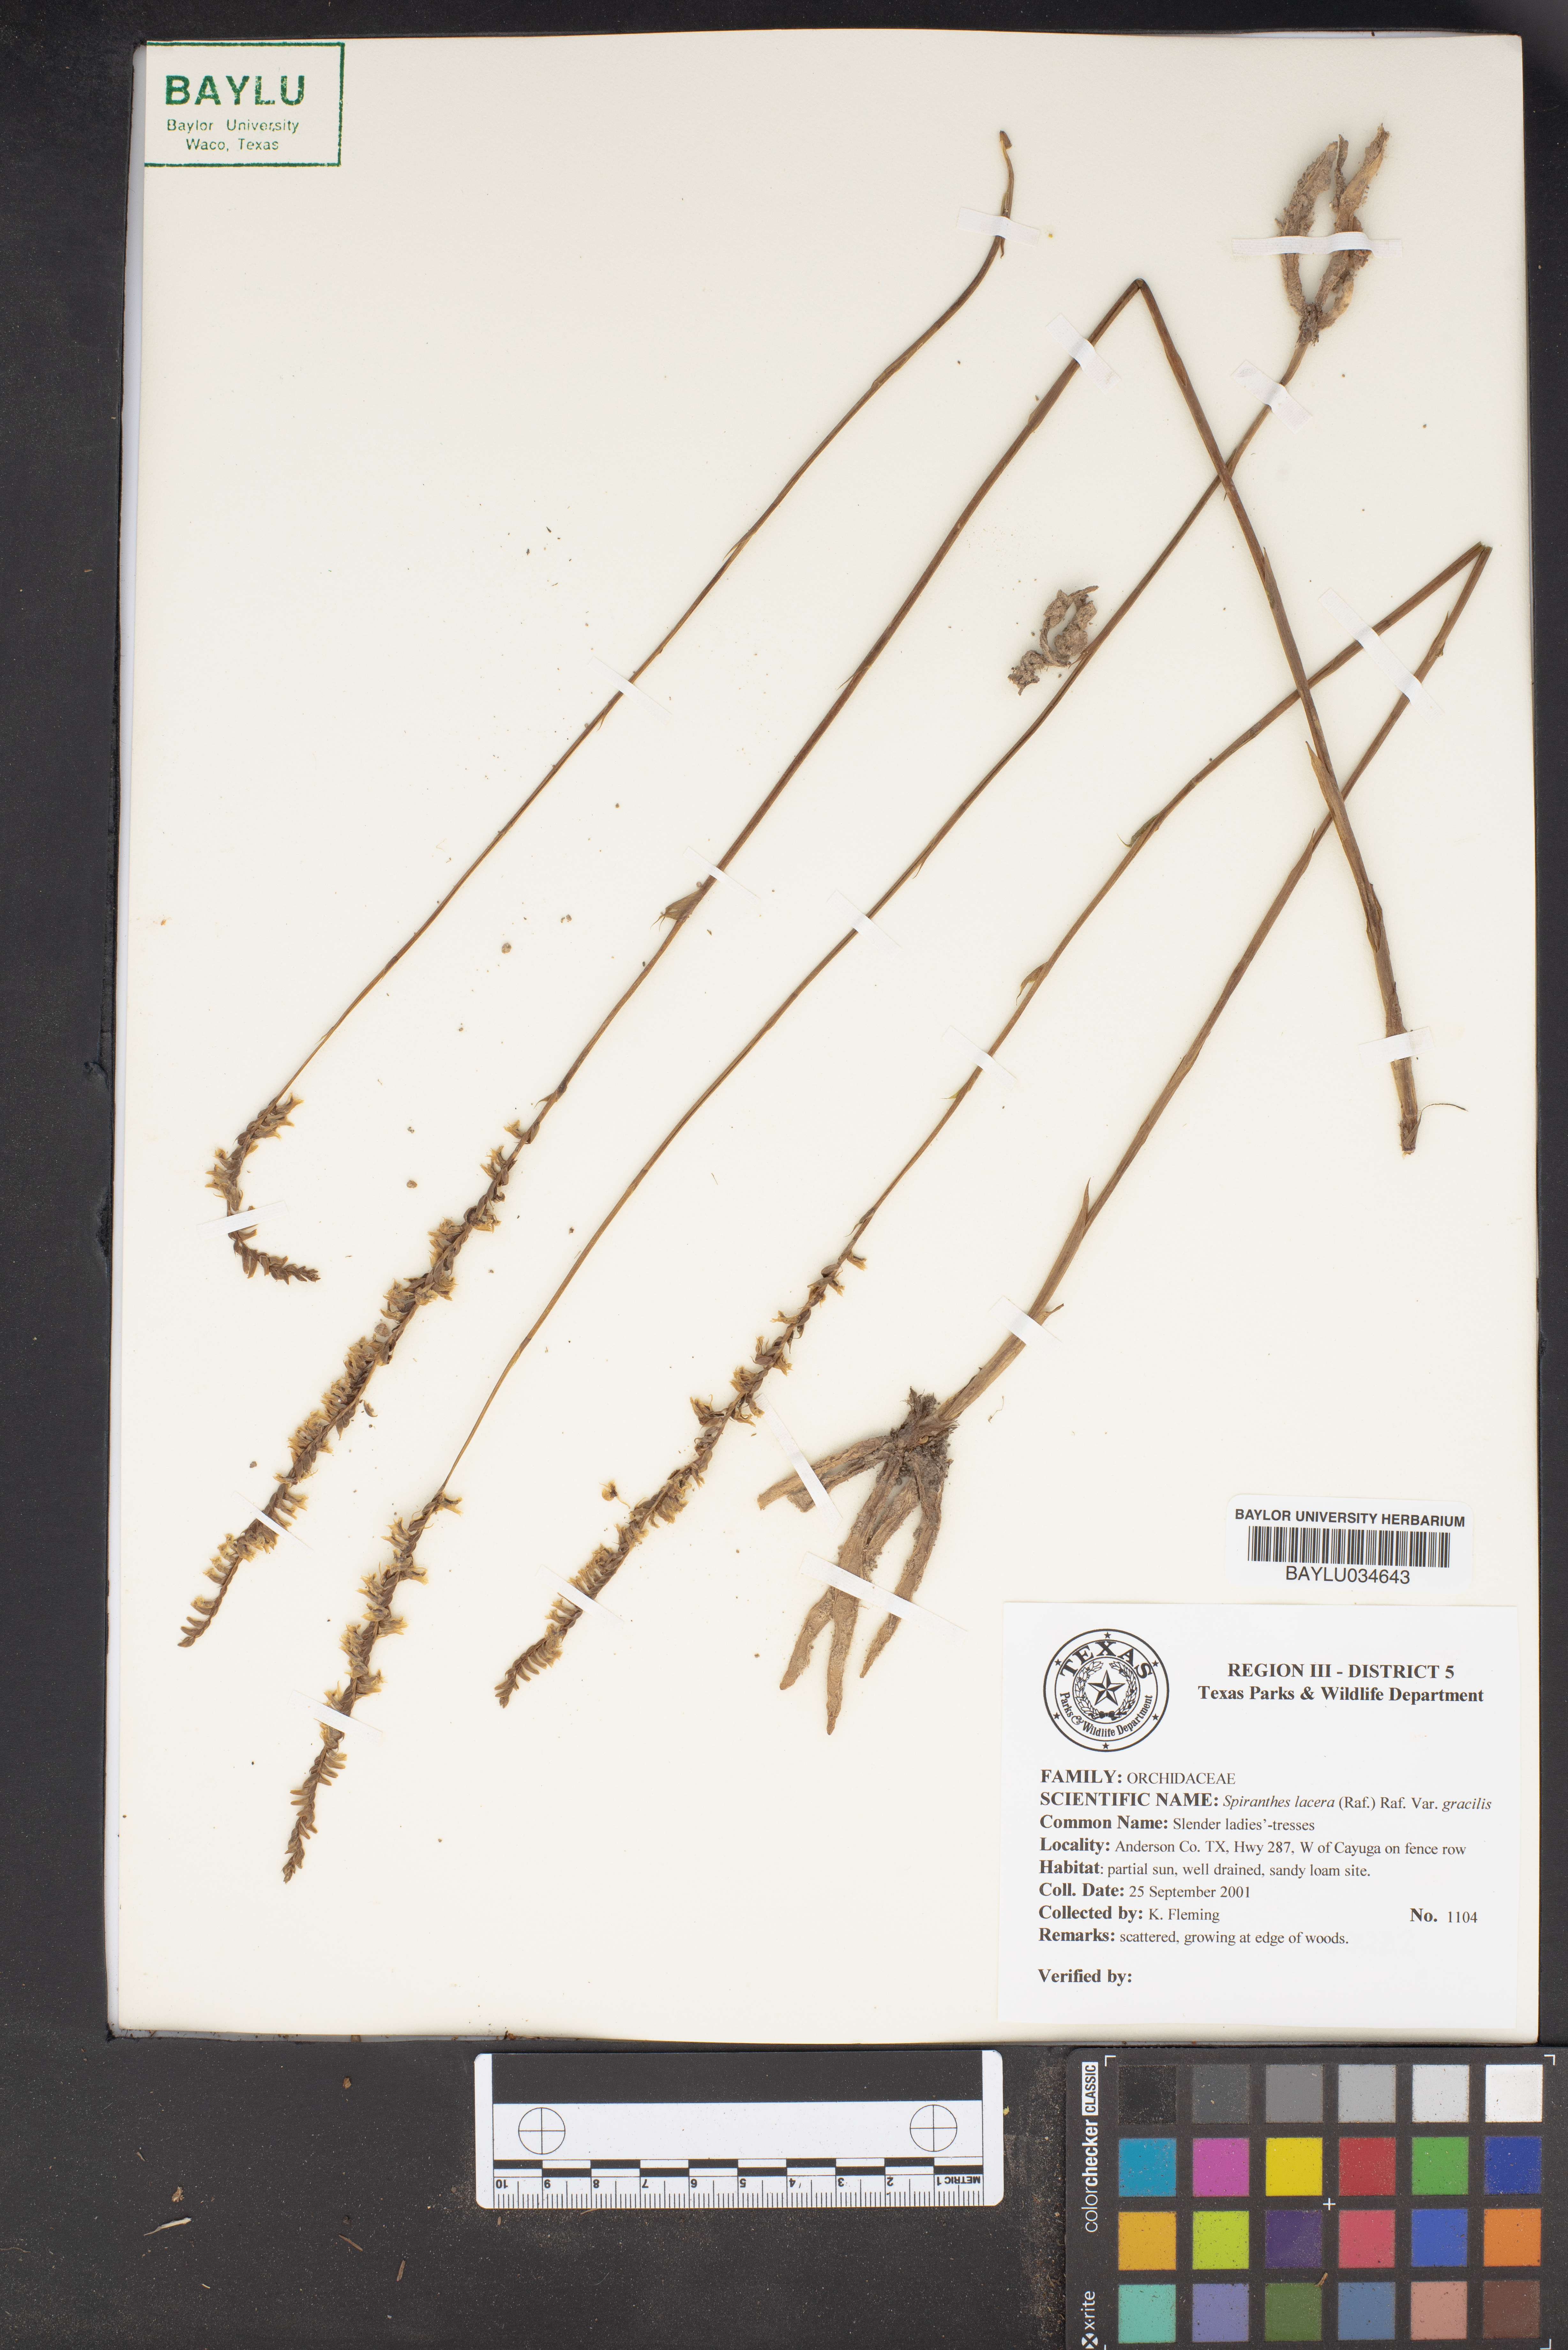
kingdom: Plantae
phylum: Tracheophyta
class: Liliopsida
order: Asparagales
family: Orchidaceae
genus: Spiranthes
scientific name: Spiranthes lacera
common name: Northern slender ladies'-tresses
